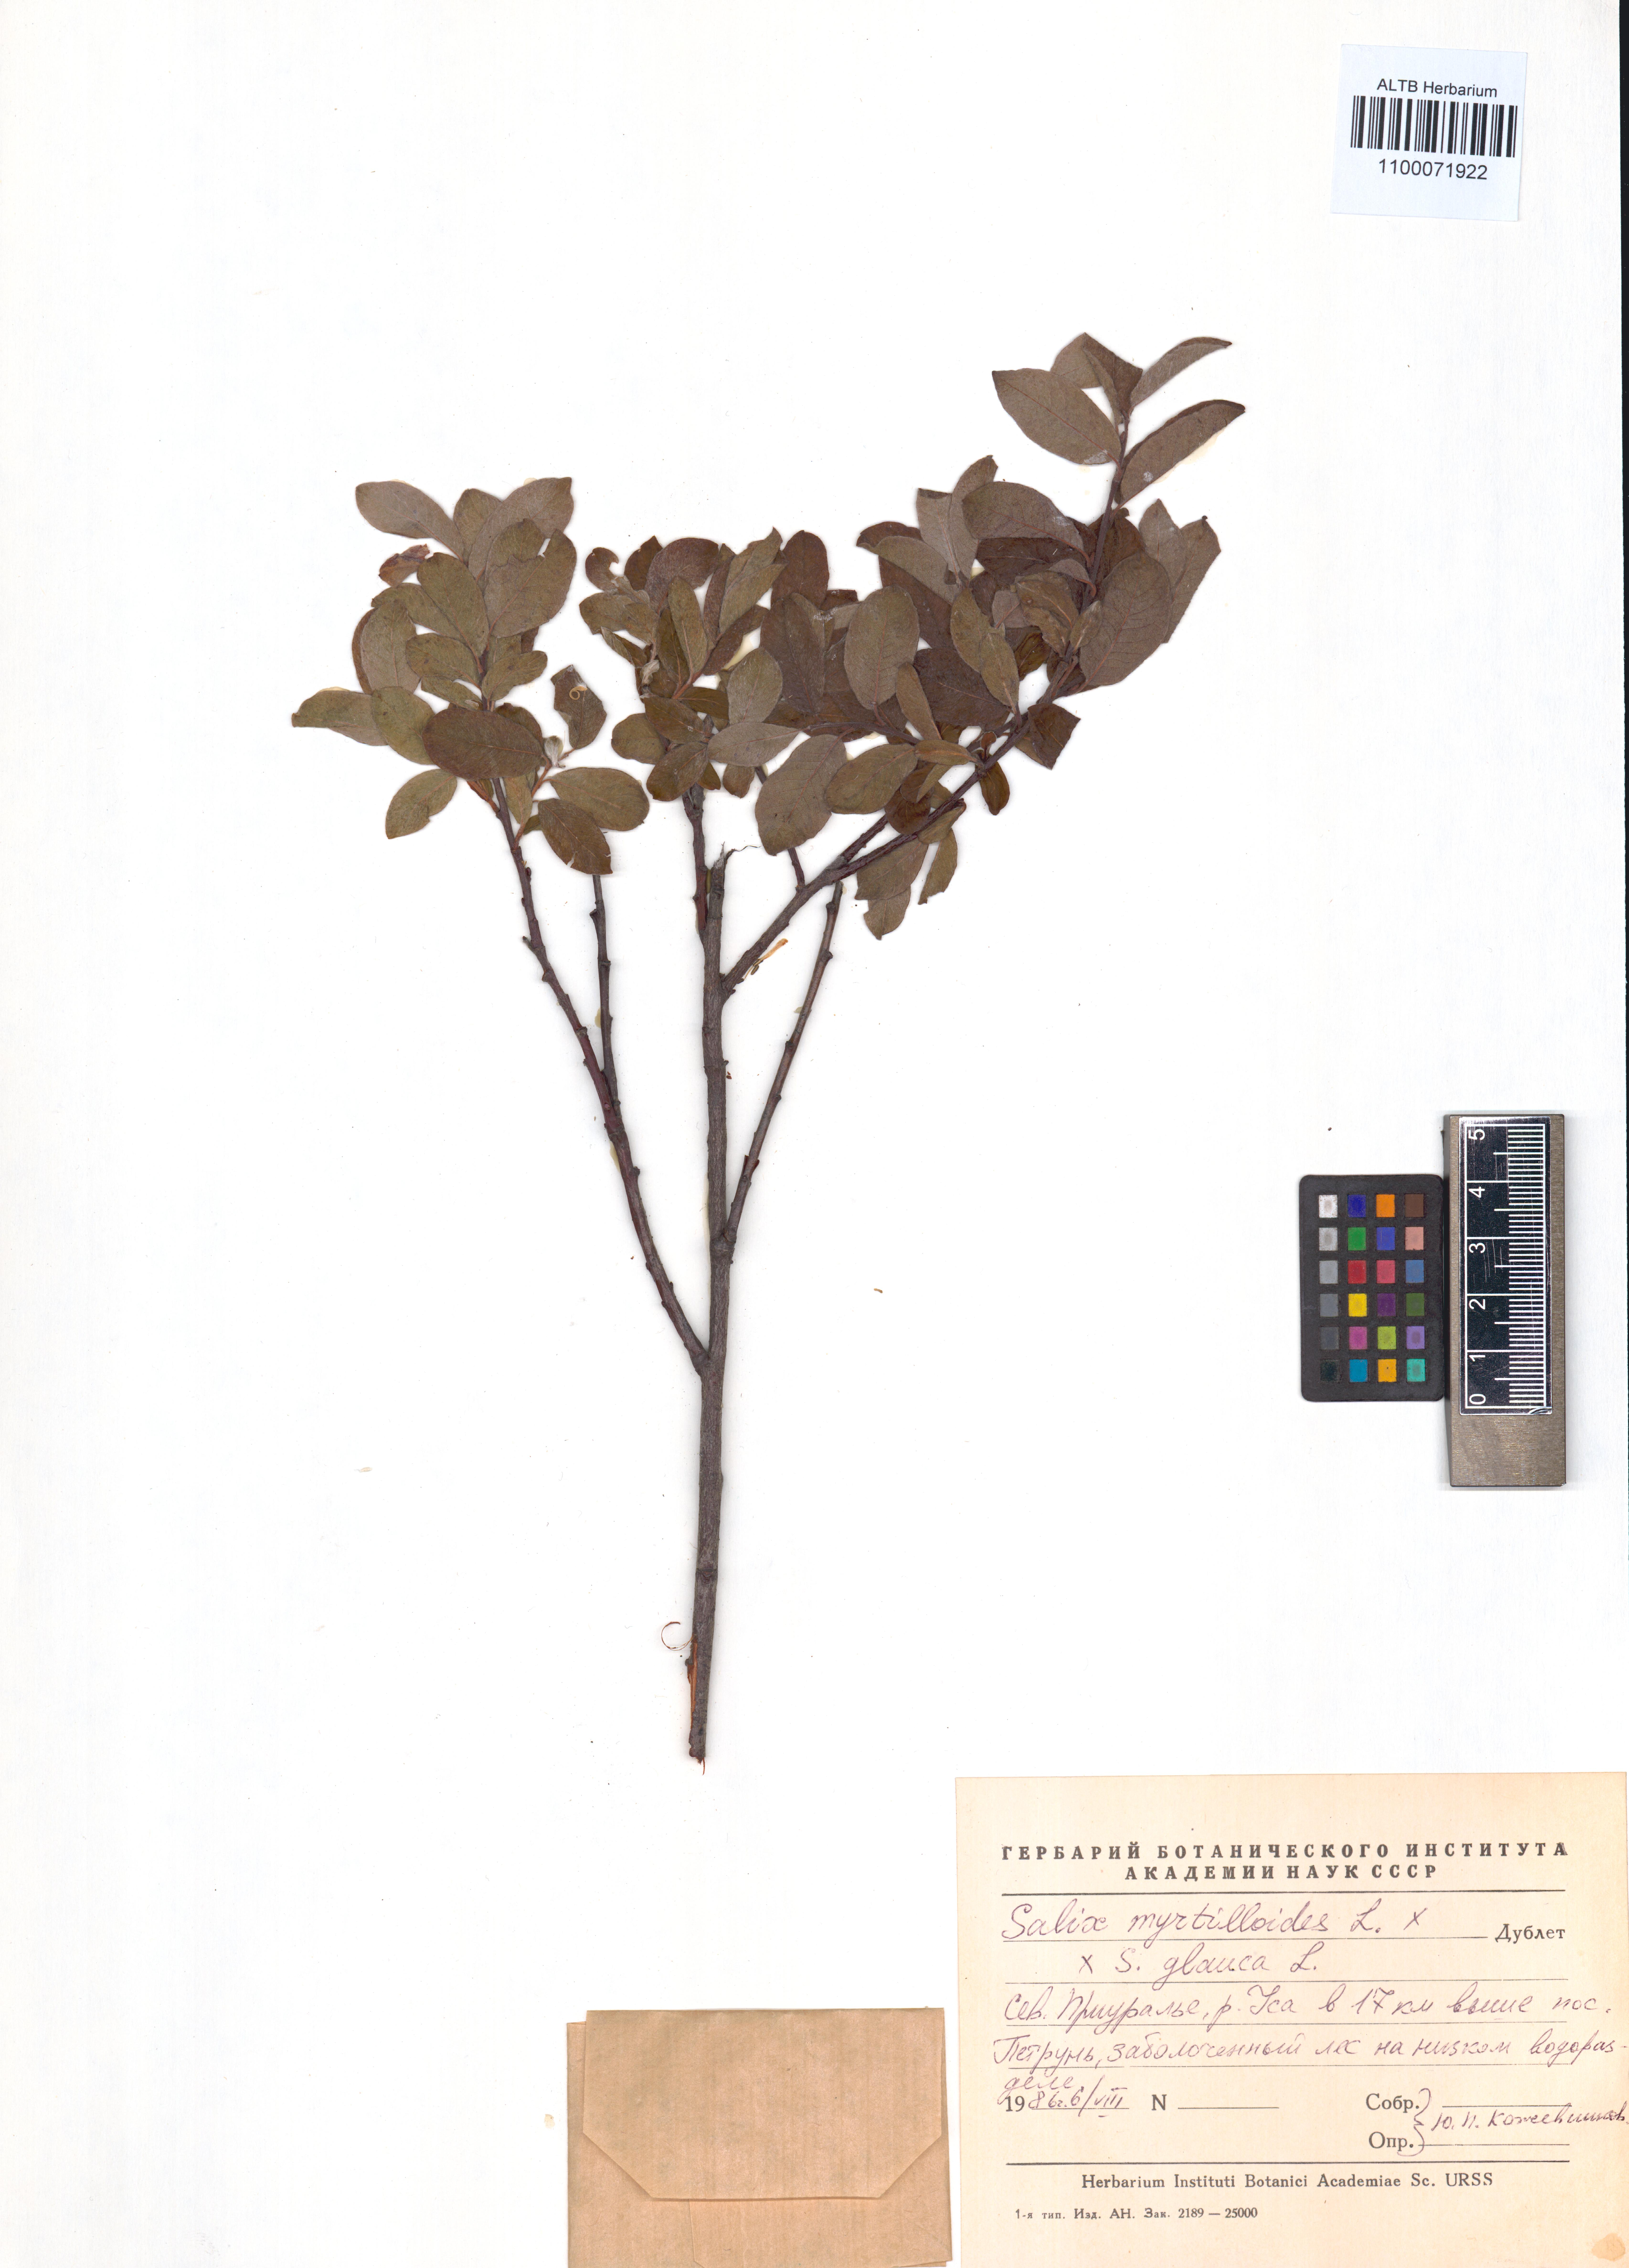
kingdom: Plantae
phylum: Tracheophyta
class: Magnoliopsida
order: Malpighiales
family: Salicaceae
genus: Salix
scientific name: Salix myrtilloides
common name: Myrtle-leaved willow
